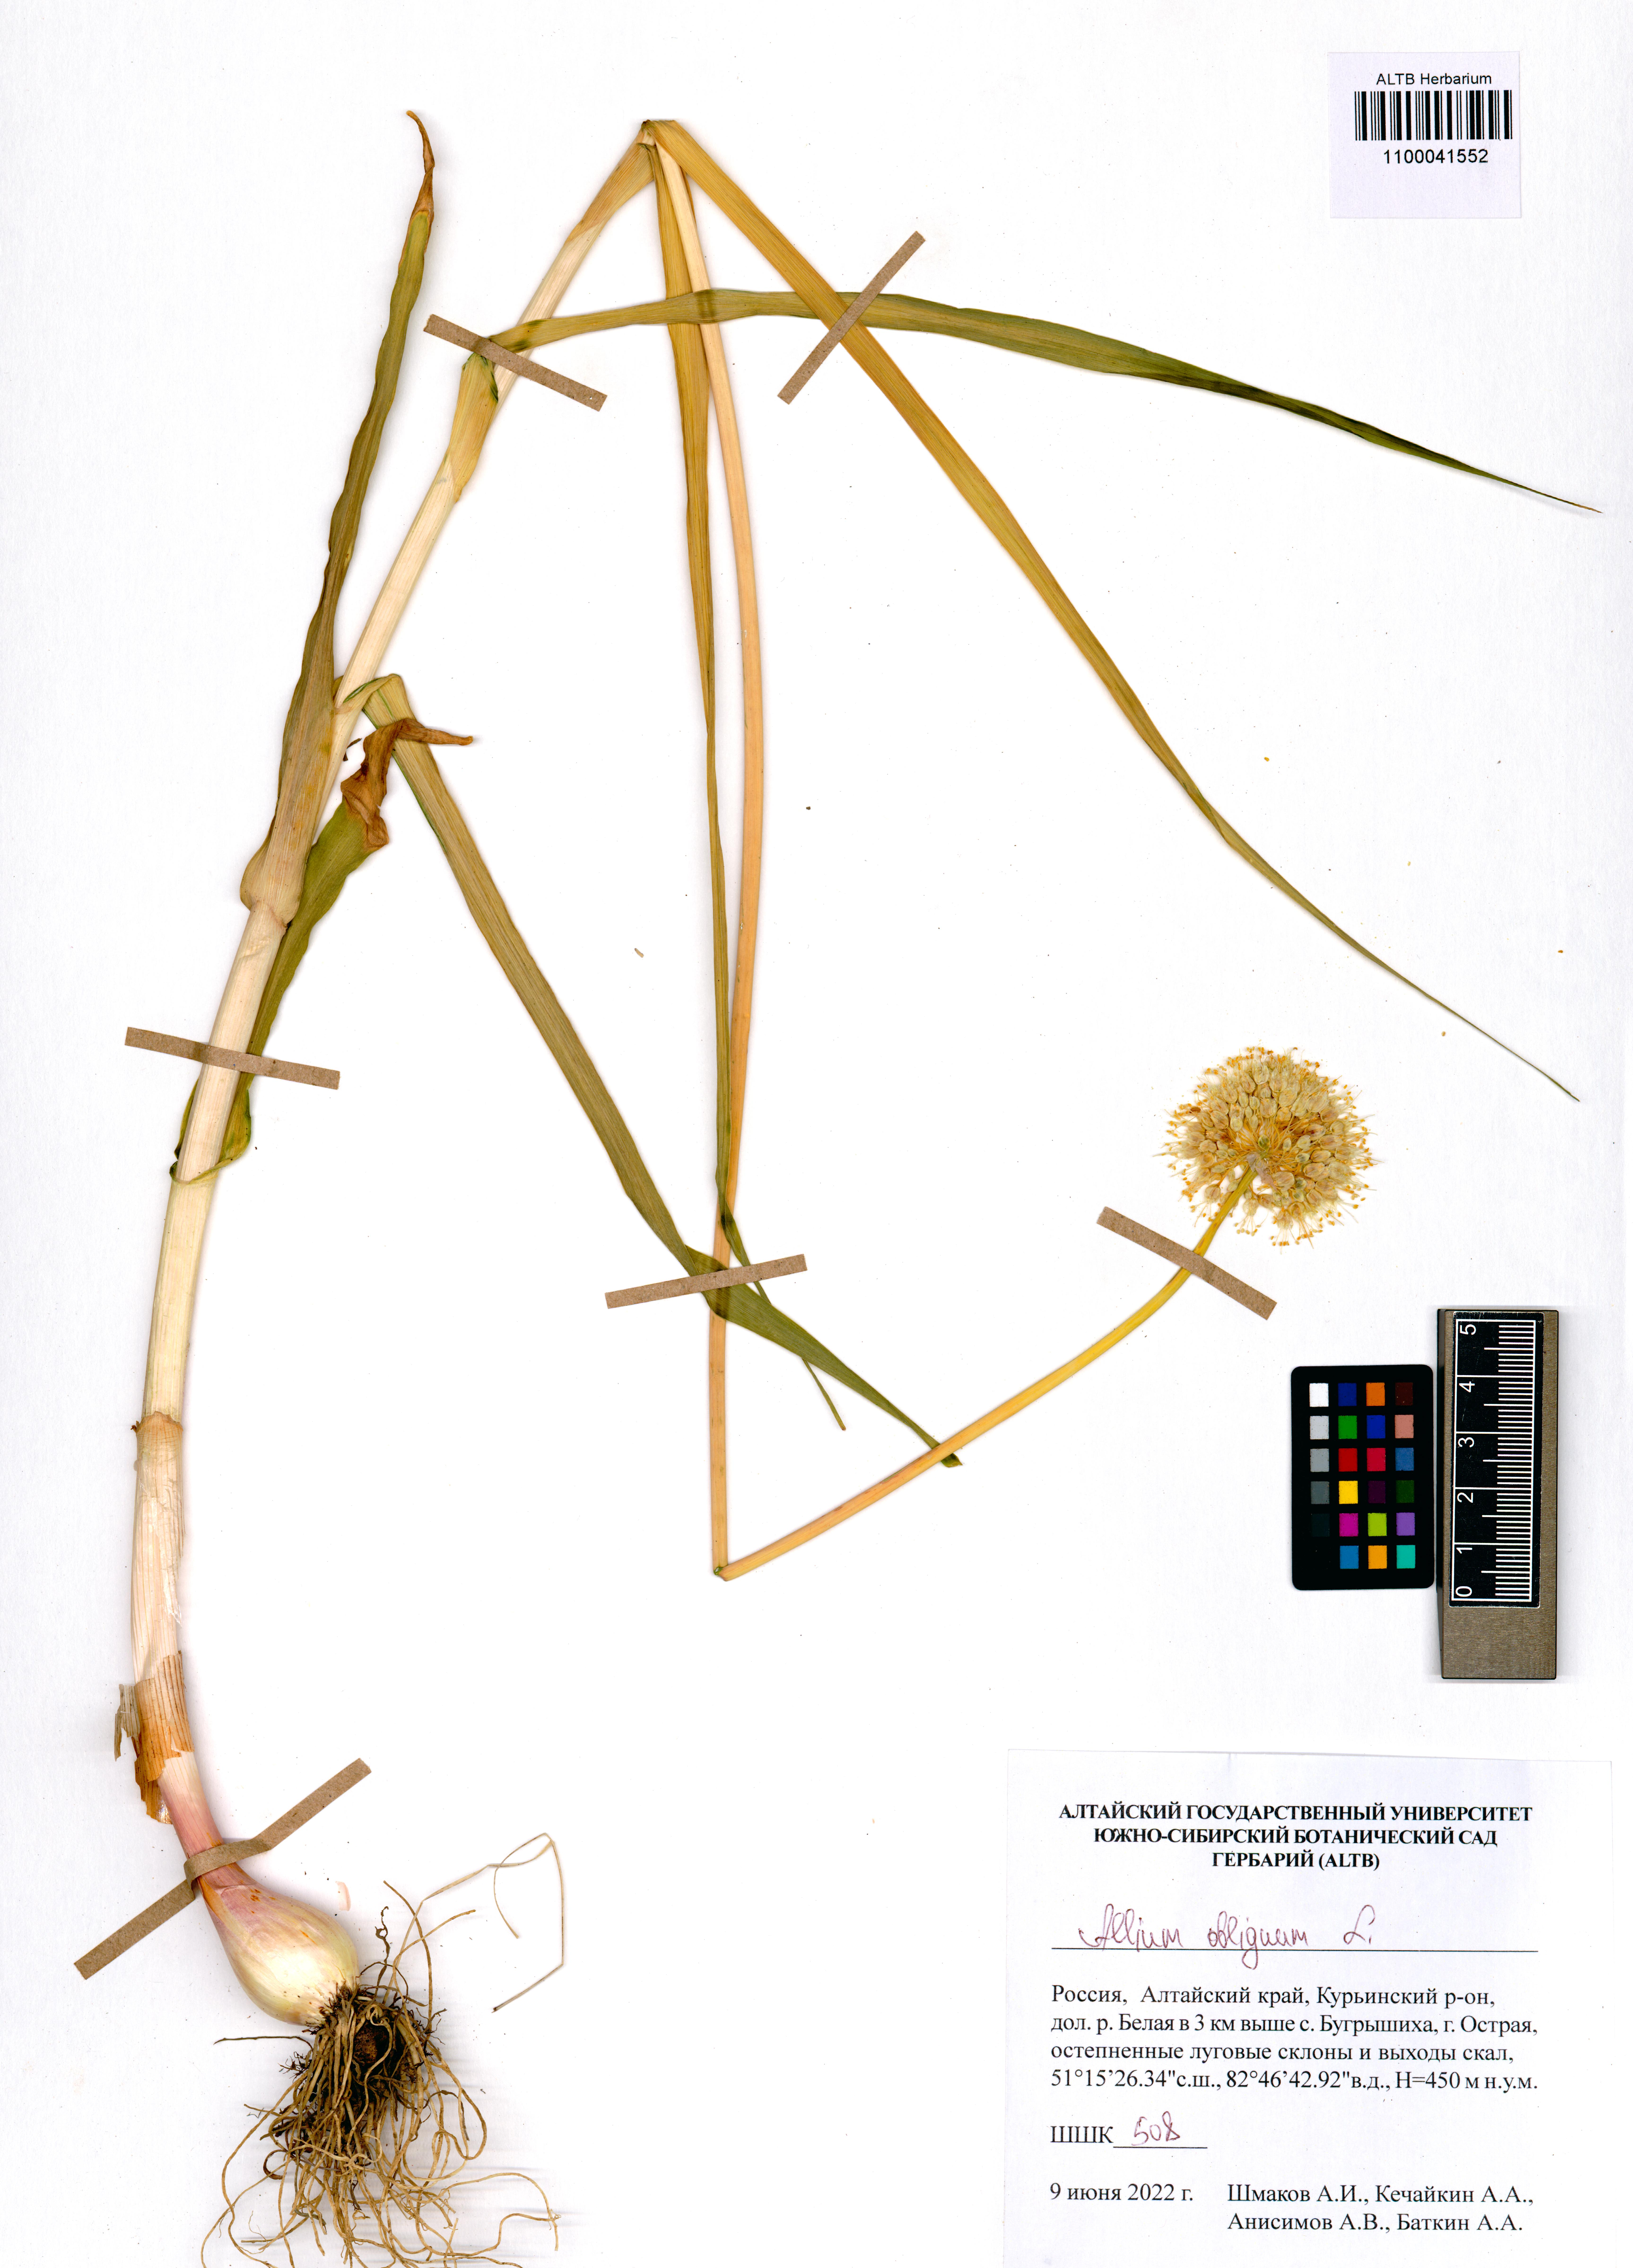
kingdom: Plantae
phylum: Tracheophyta
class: Liliopsida
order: Asparagales
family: Amaryllidaceae
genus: Allium
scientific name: Allium obliquum
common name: Oblique onion
